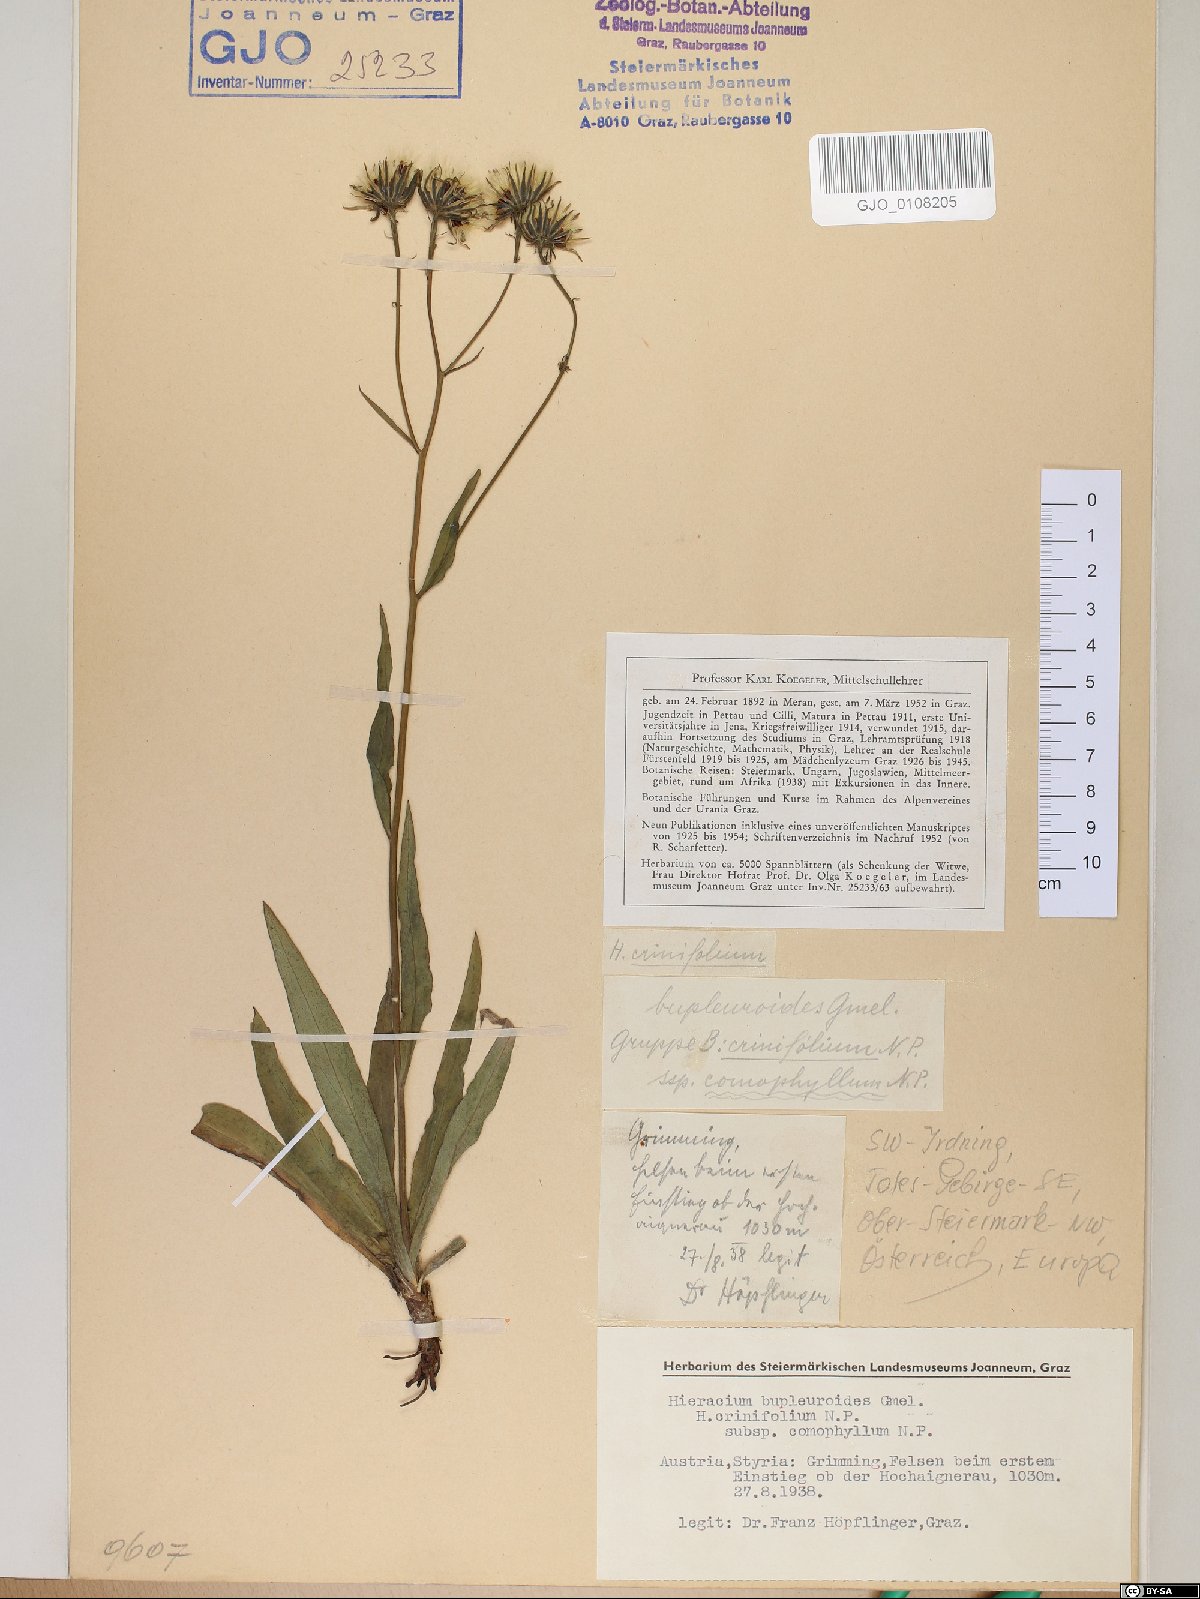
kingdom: Plantae
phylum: Tracheophyta
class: Magnoliopsida
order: Asterales
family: Asteraceae
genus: Hieracium
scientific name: Hieracium bupleuroides
